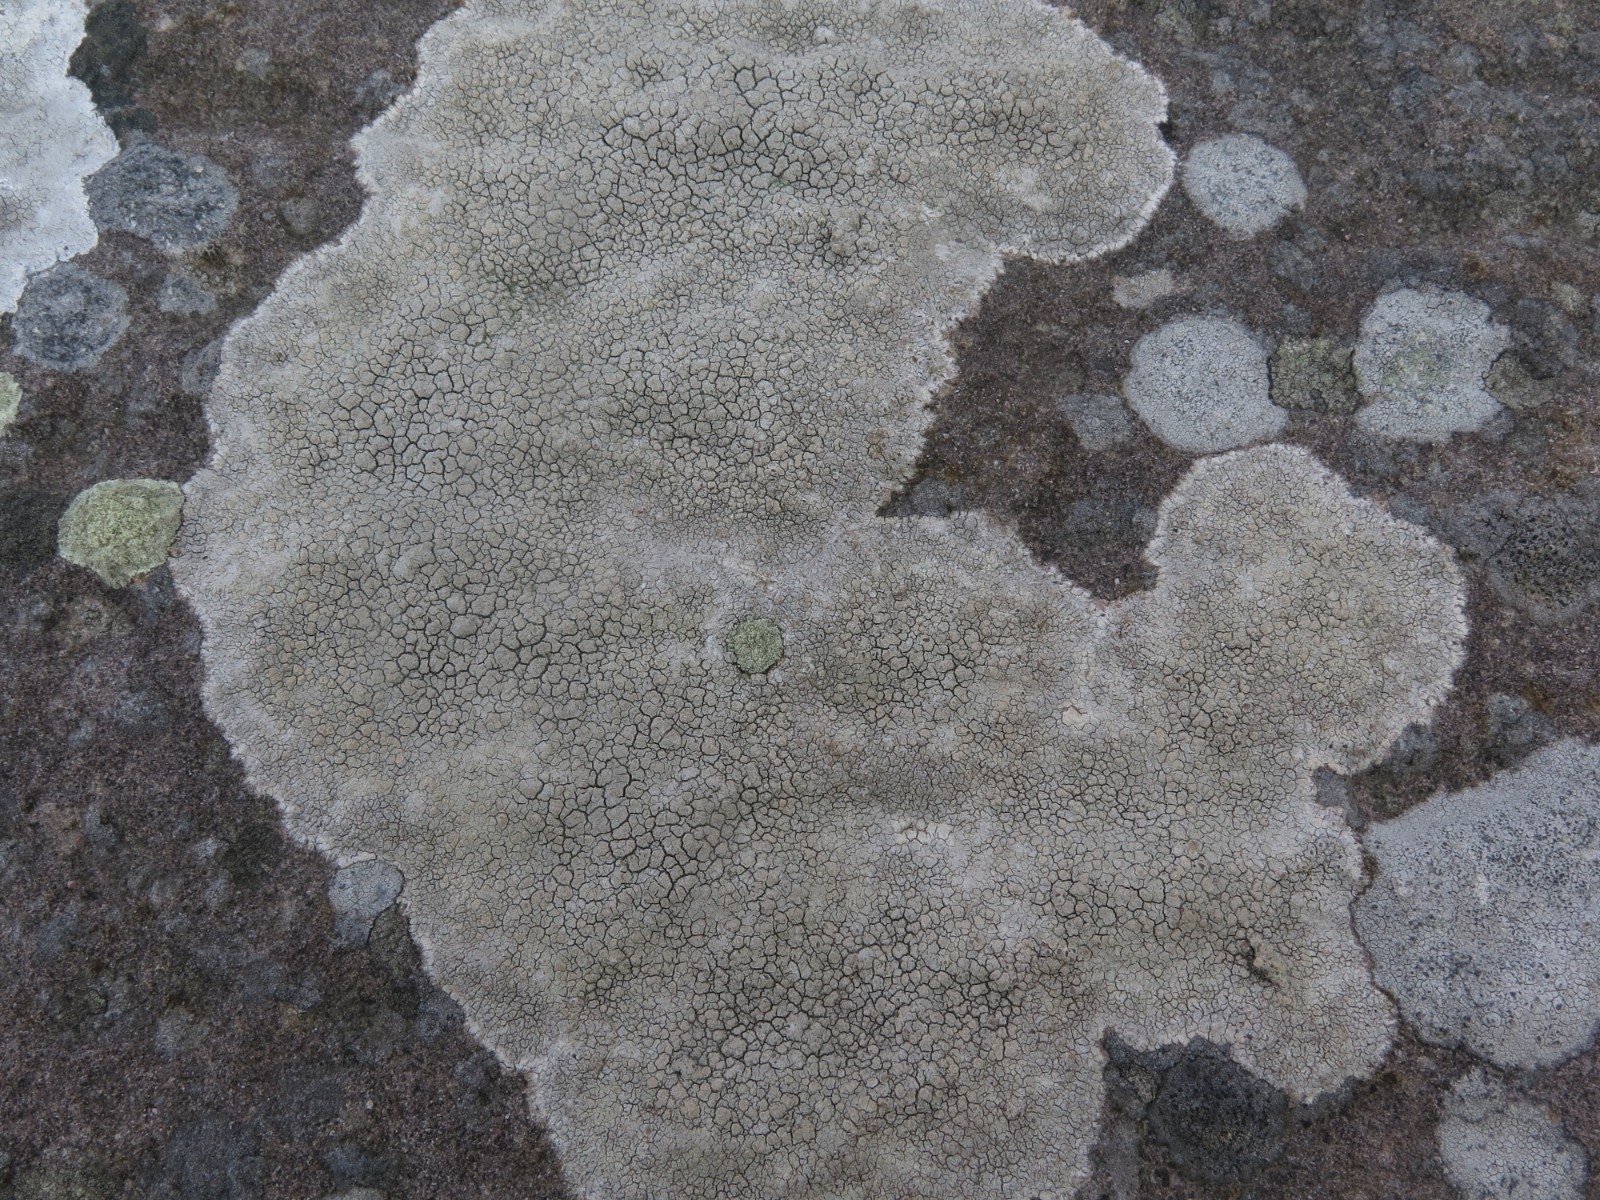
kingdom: Fungi
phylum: Ascomycota
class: Lecanoromycetes
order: Lecanorales
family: Lecanoraceae
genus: Glaucomaria
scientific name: Glaucomaria rupicola
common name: stengærde-kantskivelav
